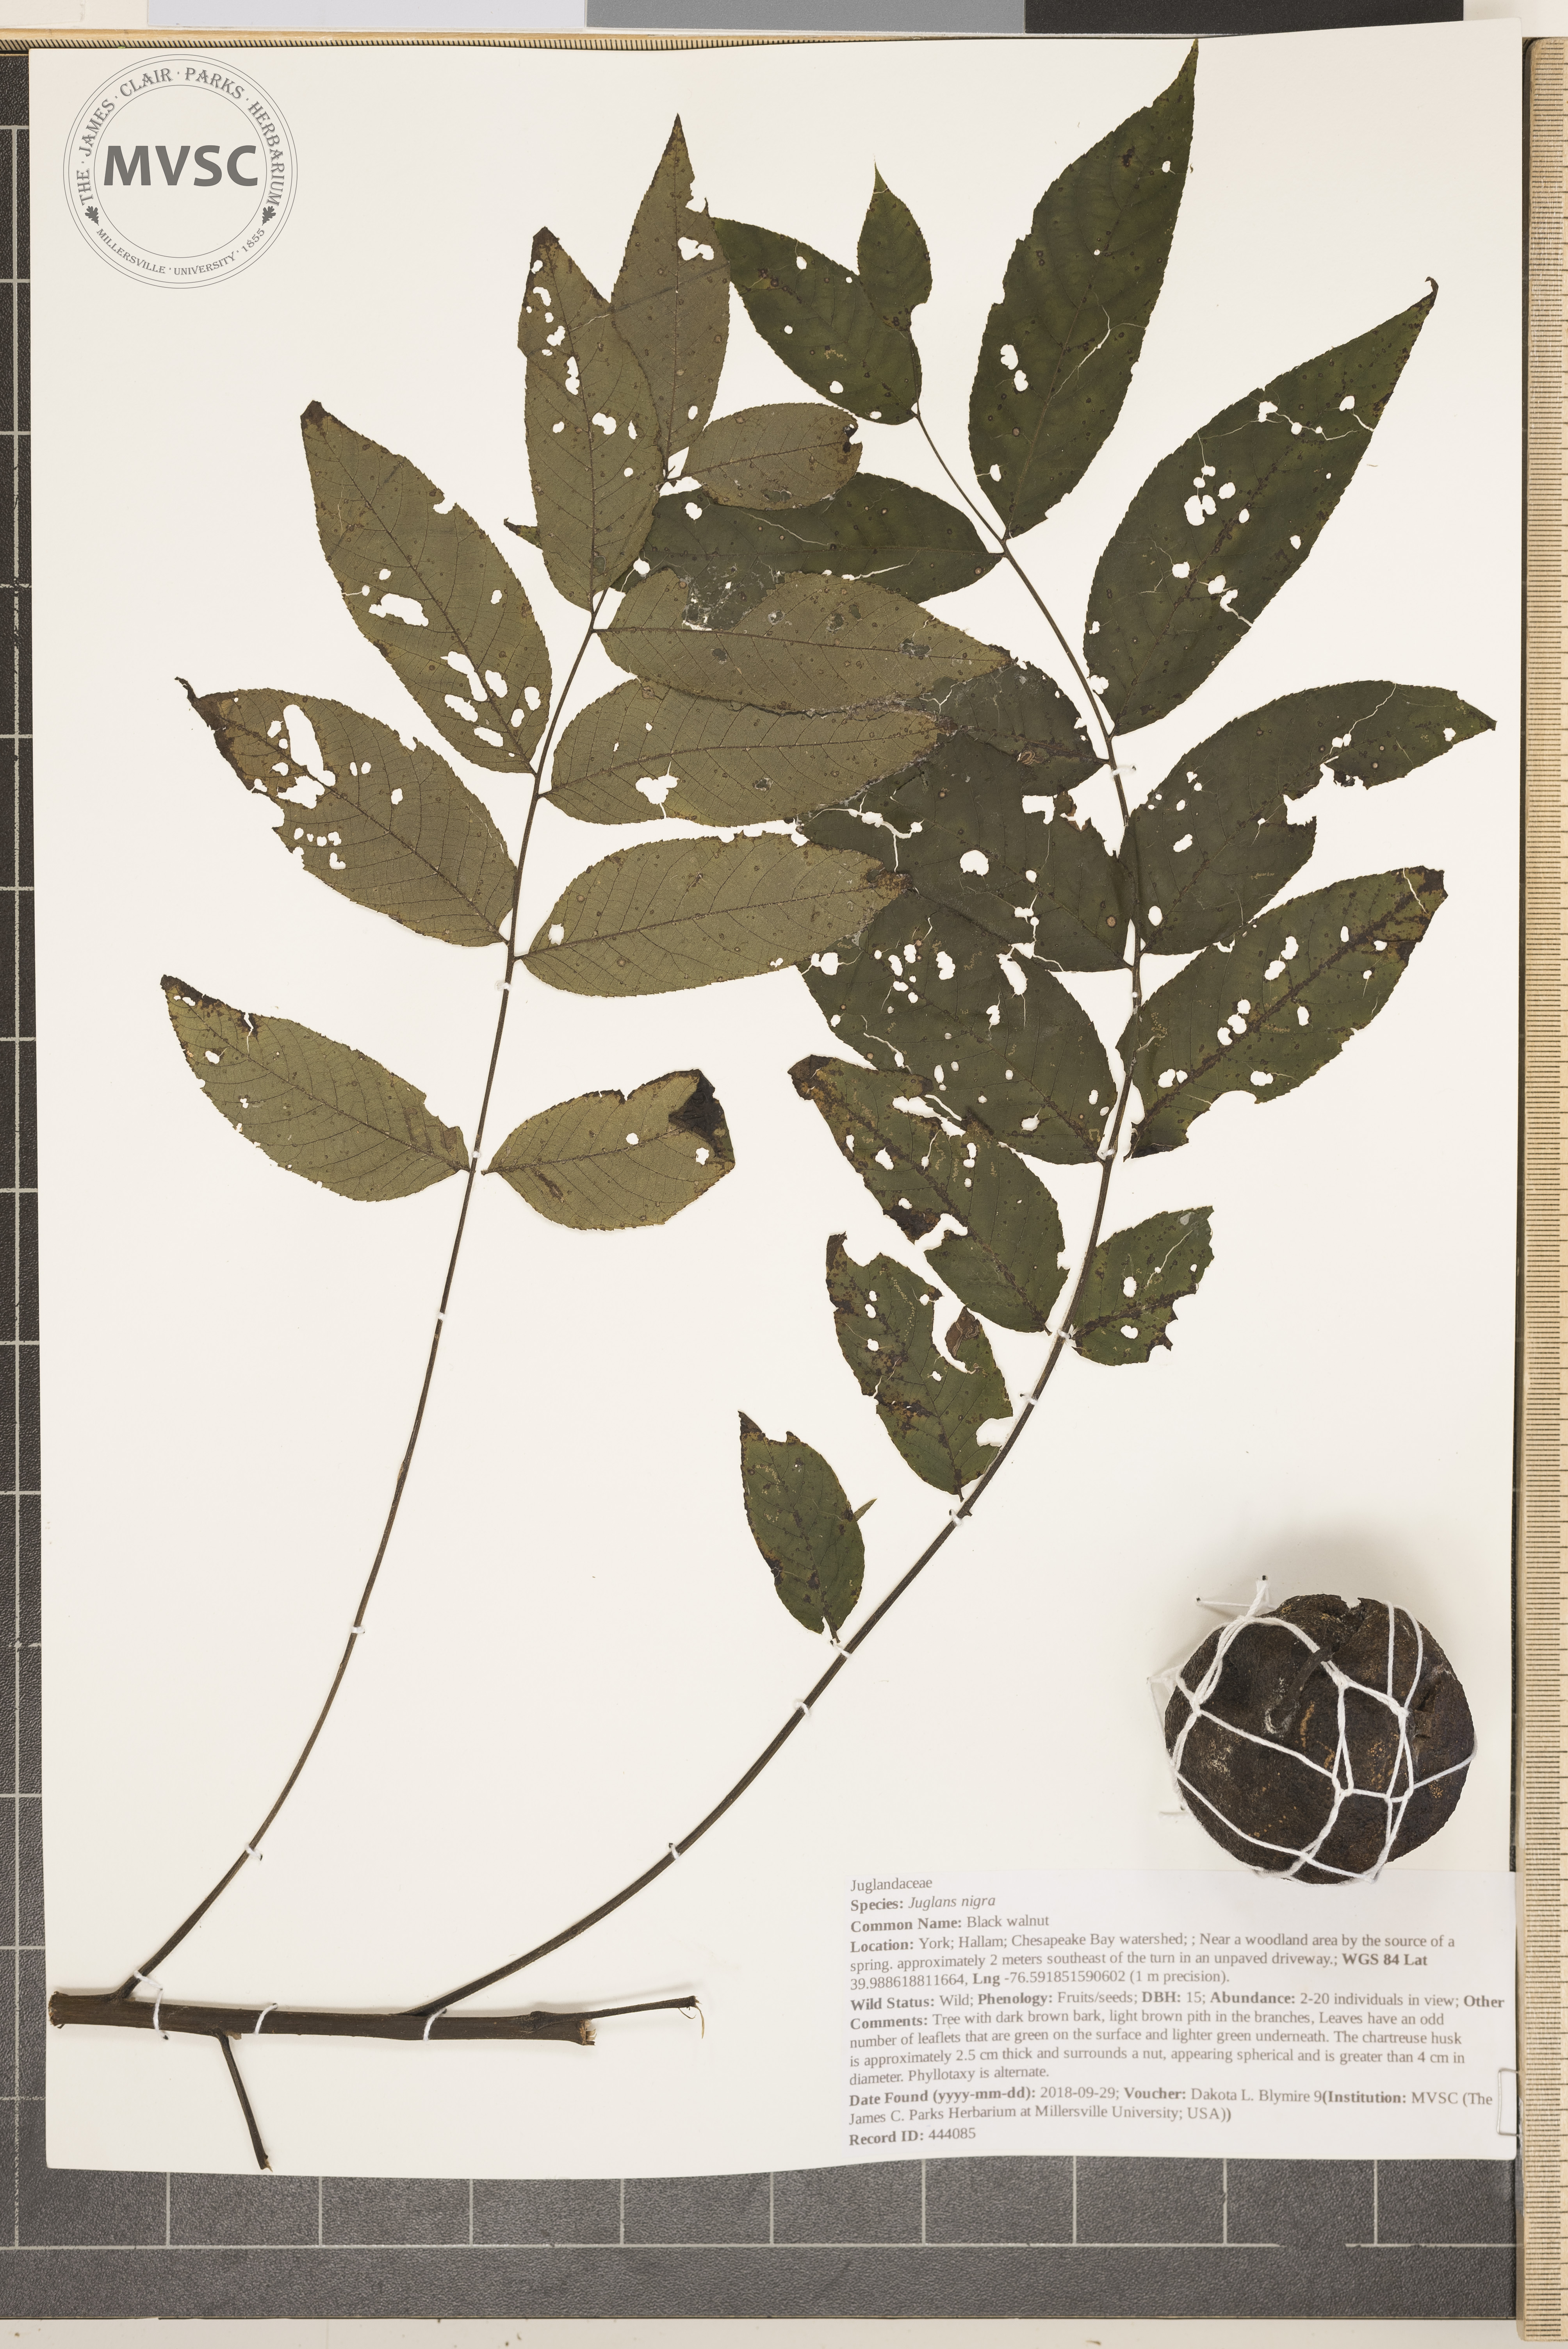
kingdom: Plantae
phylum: Tracheophyta
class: Magnoliopsida
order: Fagales
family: Juglandaceae
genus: Juglans
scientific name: Juglans nigra
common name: Black walnut
